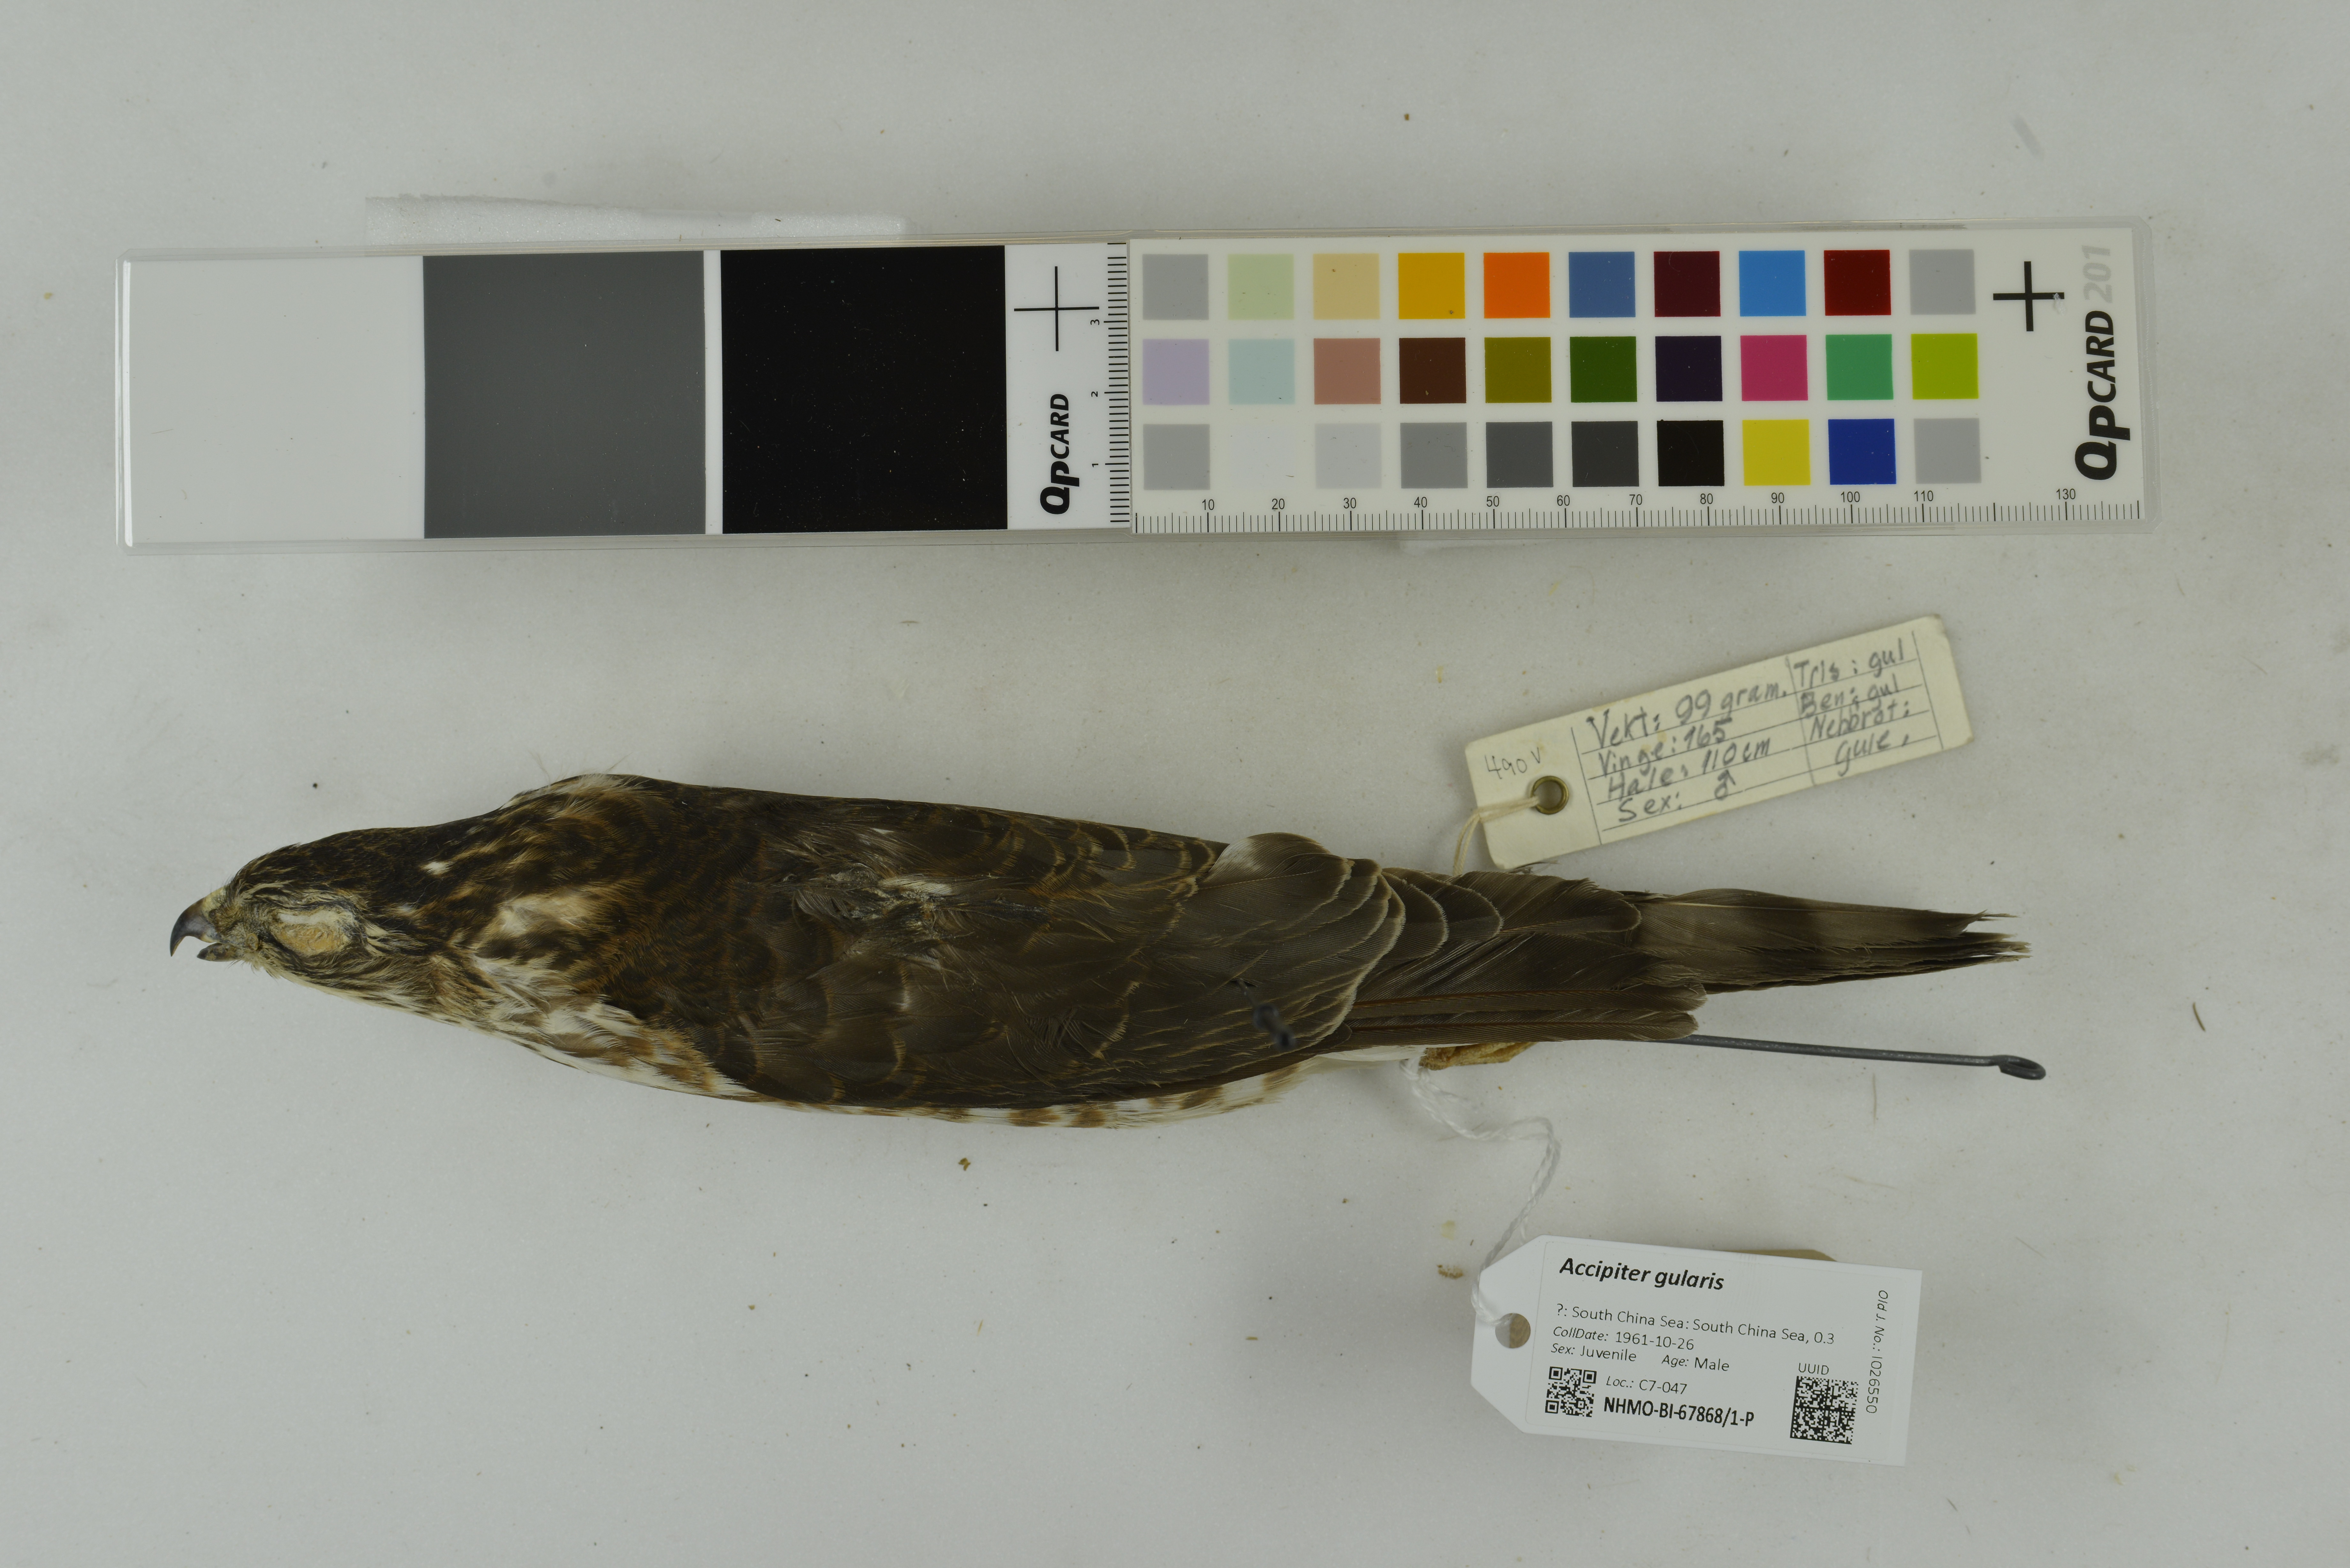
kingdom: Animalia
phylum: Chordata
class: Aves
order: Accipitriformes
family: Accipitridae
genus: Accipiter
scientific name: Accipiter gularis
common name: Japanese sparrowhawk
